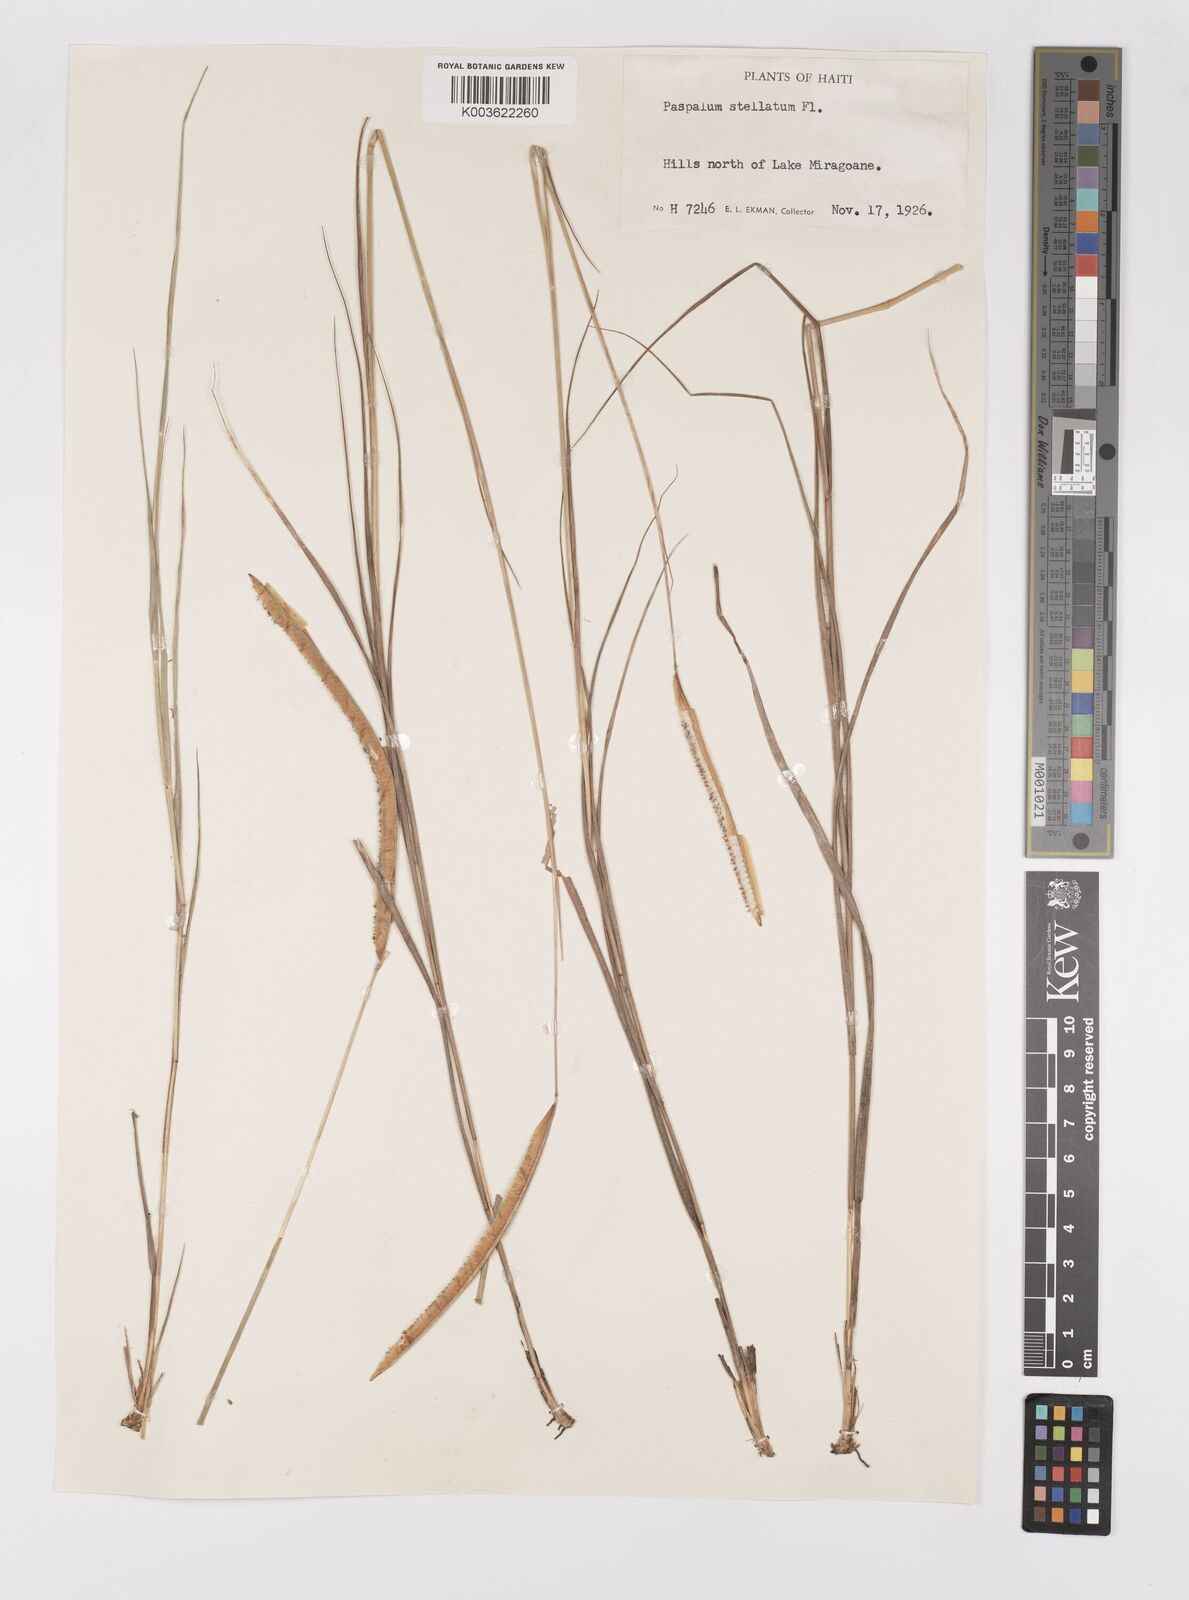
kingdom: Plantae
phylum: Tracheophyta
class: Liliopsida
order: Poales
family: Poaceae
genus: Paspalum
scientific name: Paspalum stellatum
